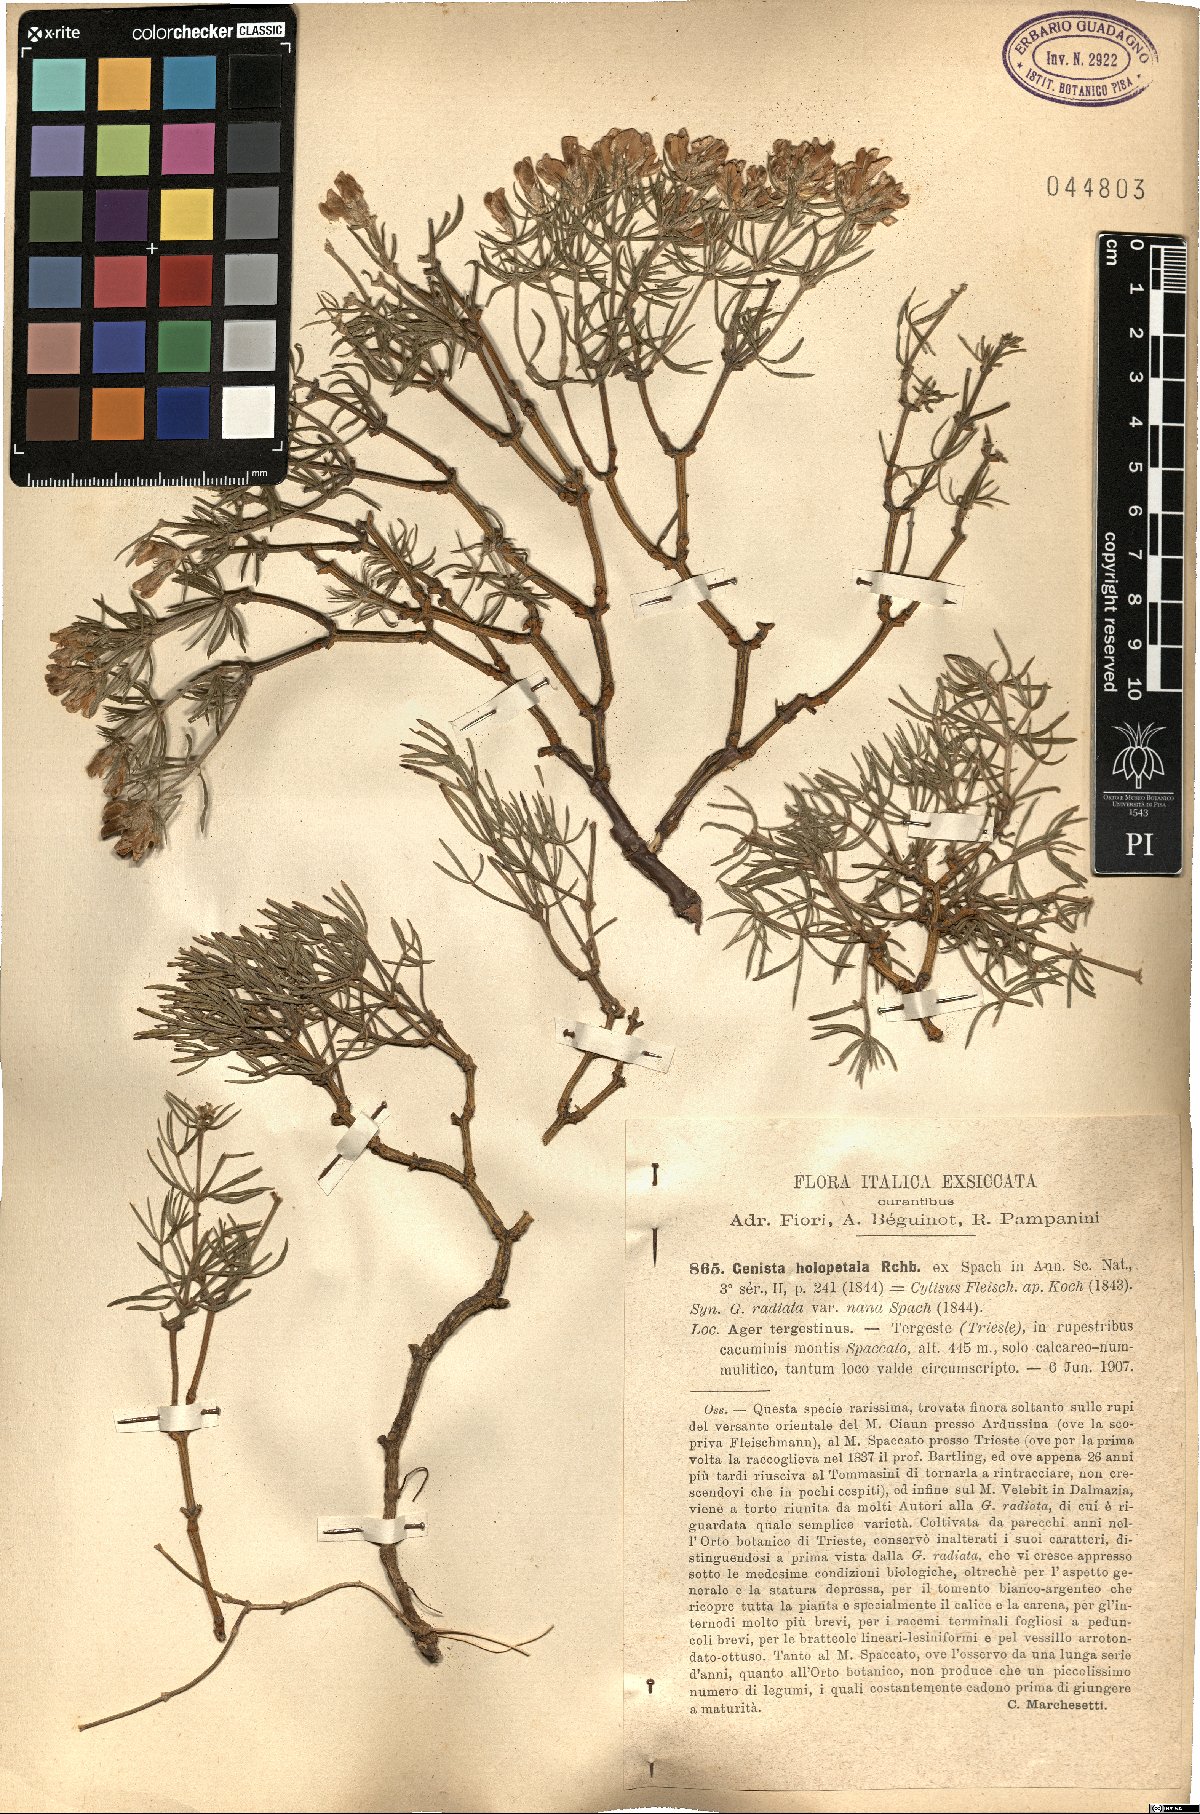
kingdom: Plantae
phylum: Tracheophyta
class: Magnoliopsida
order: Fabales
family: Fabaceae
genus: Genista
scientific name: Genista holopetala
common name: Entire-petalled gorse
